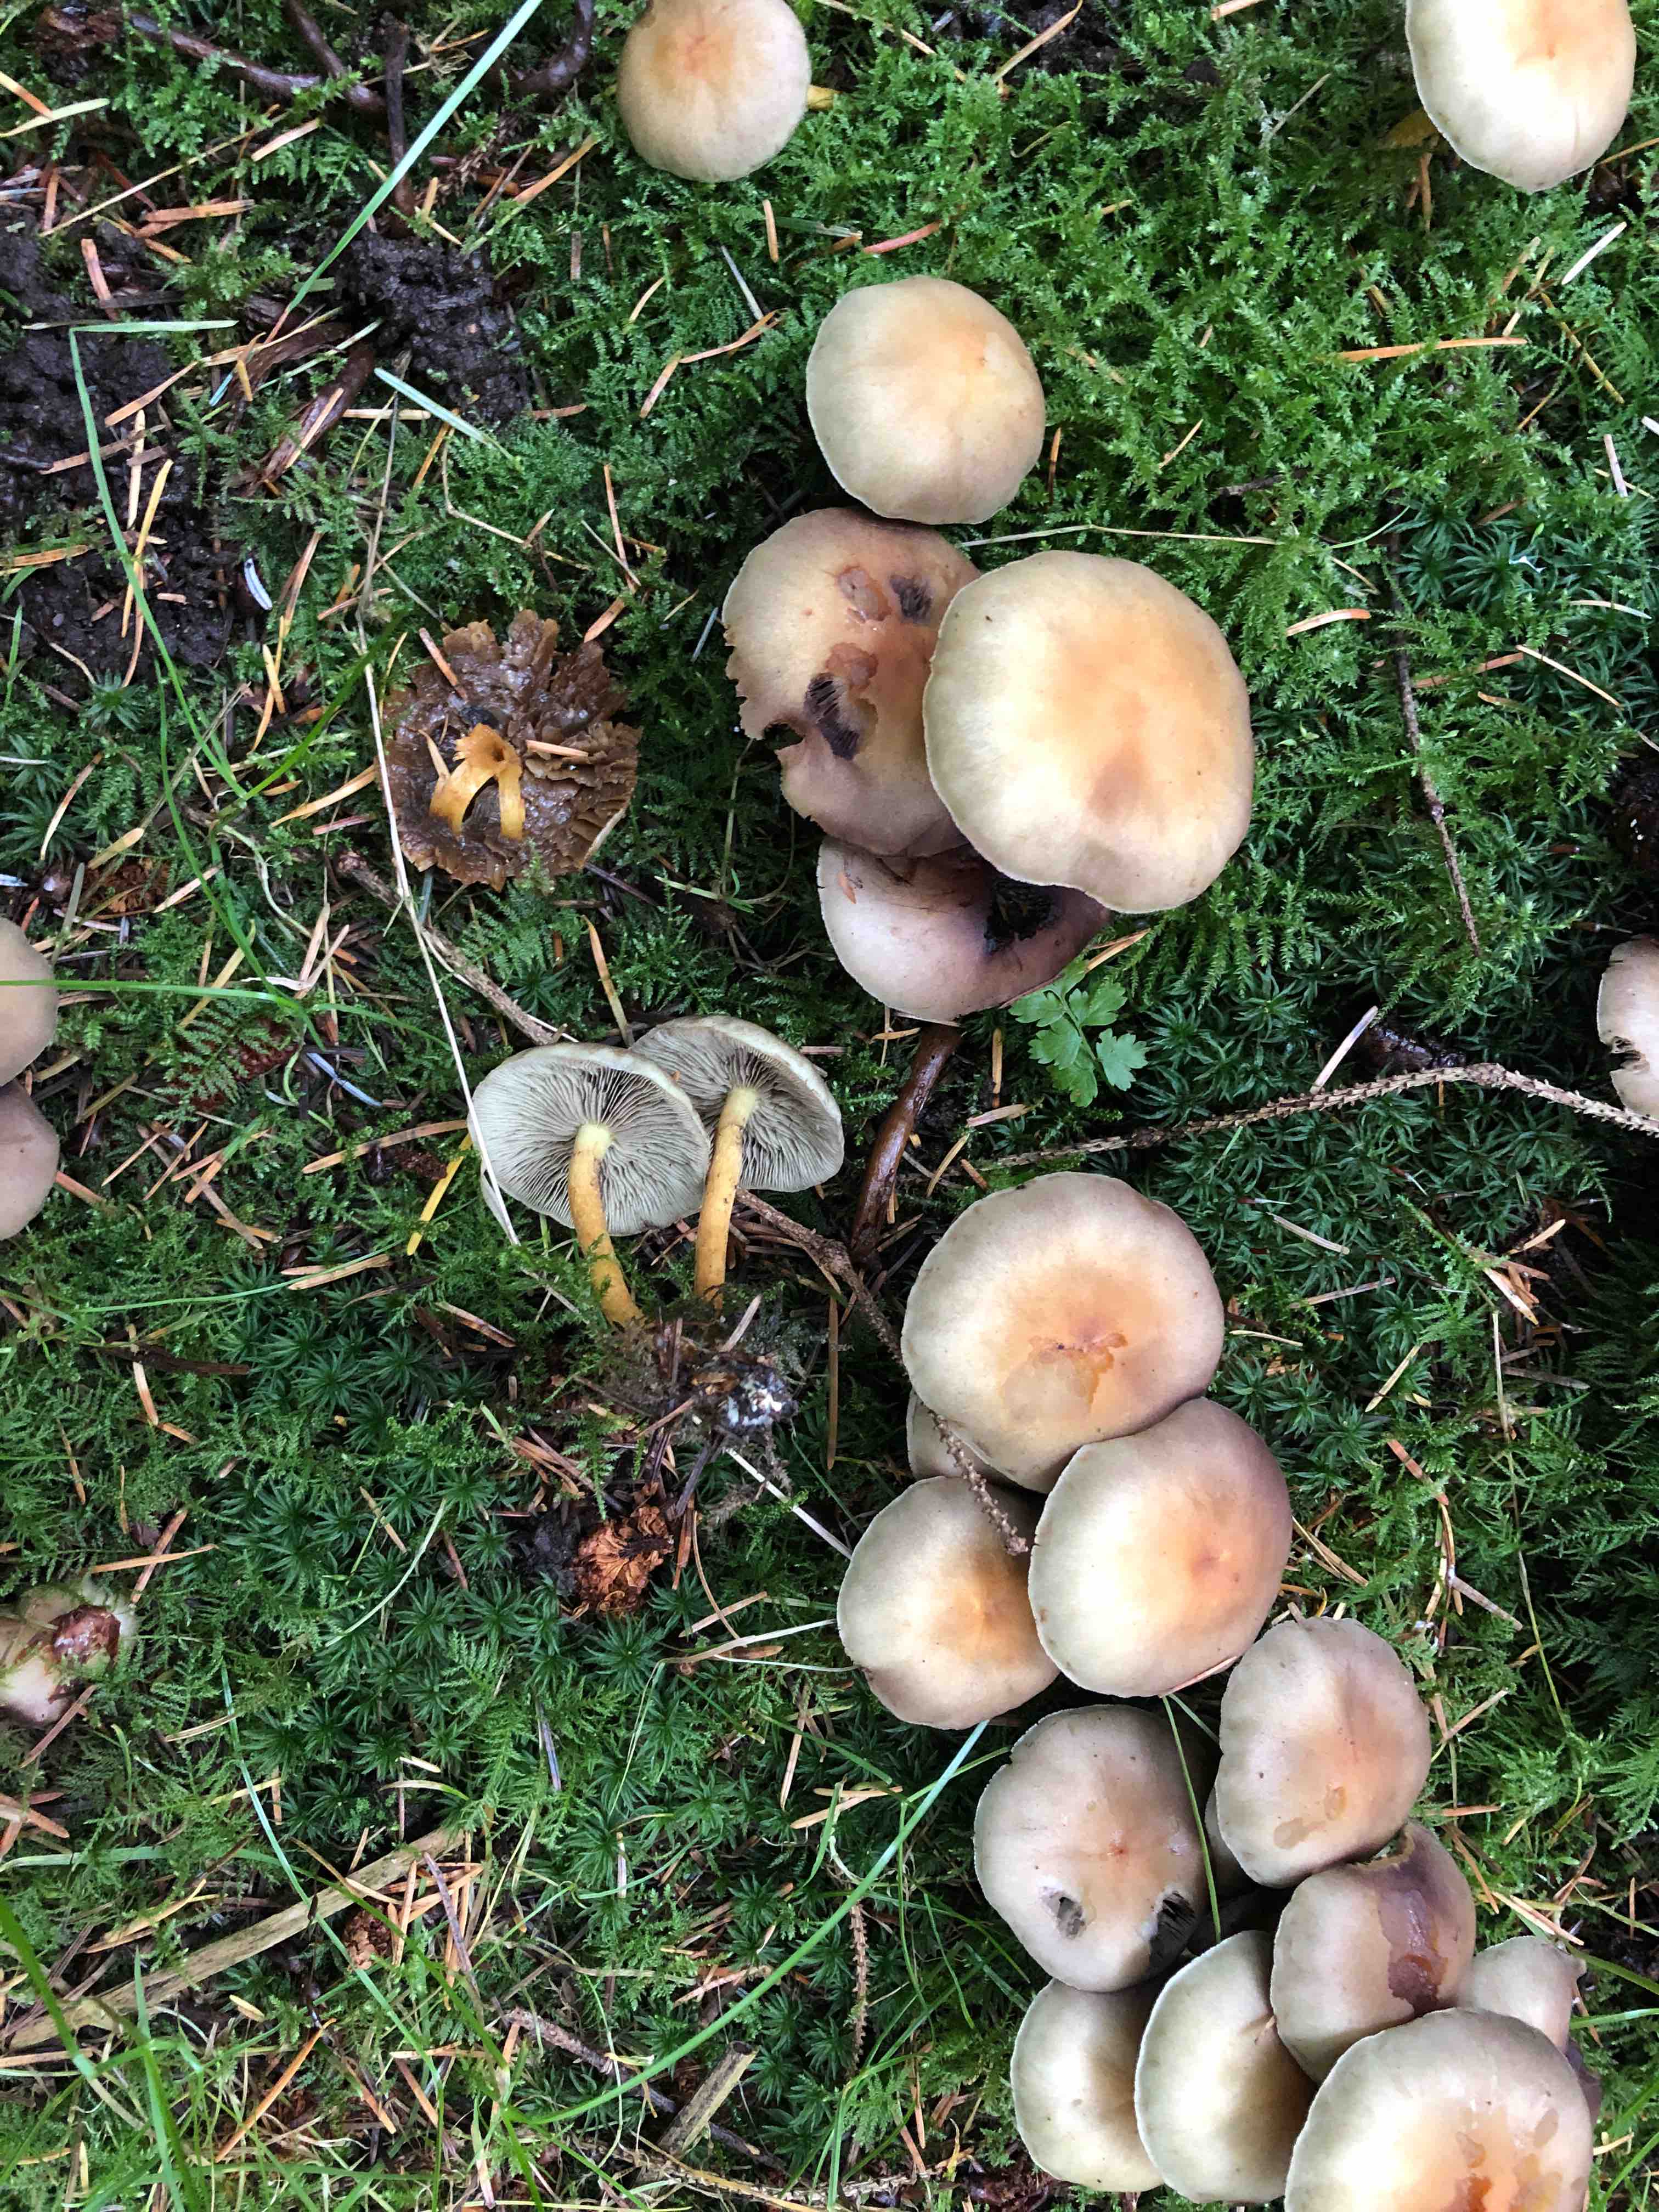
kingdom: Fungi
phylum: Basidiomycota
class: Agaricomycetes
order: Agaricales
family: Strophariaceae
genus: Hypholoma
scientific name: Hypholoma fasciculare
